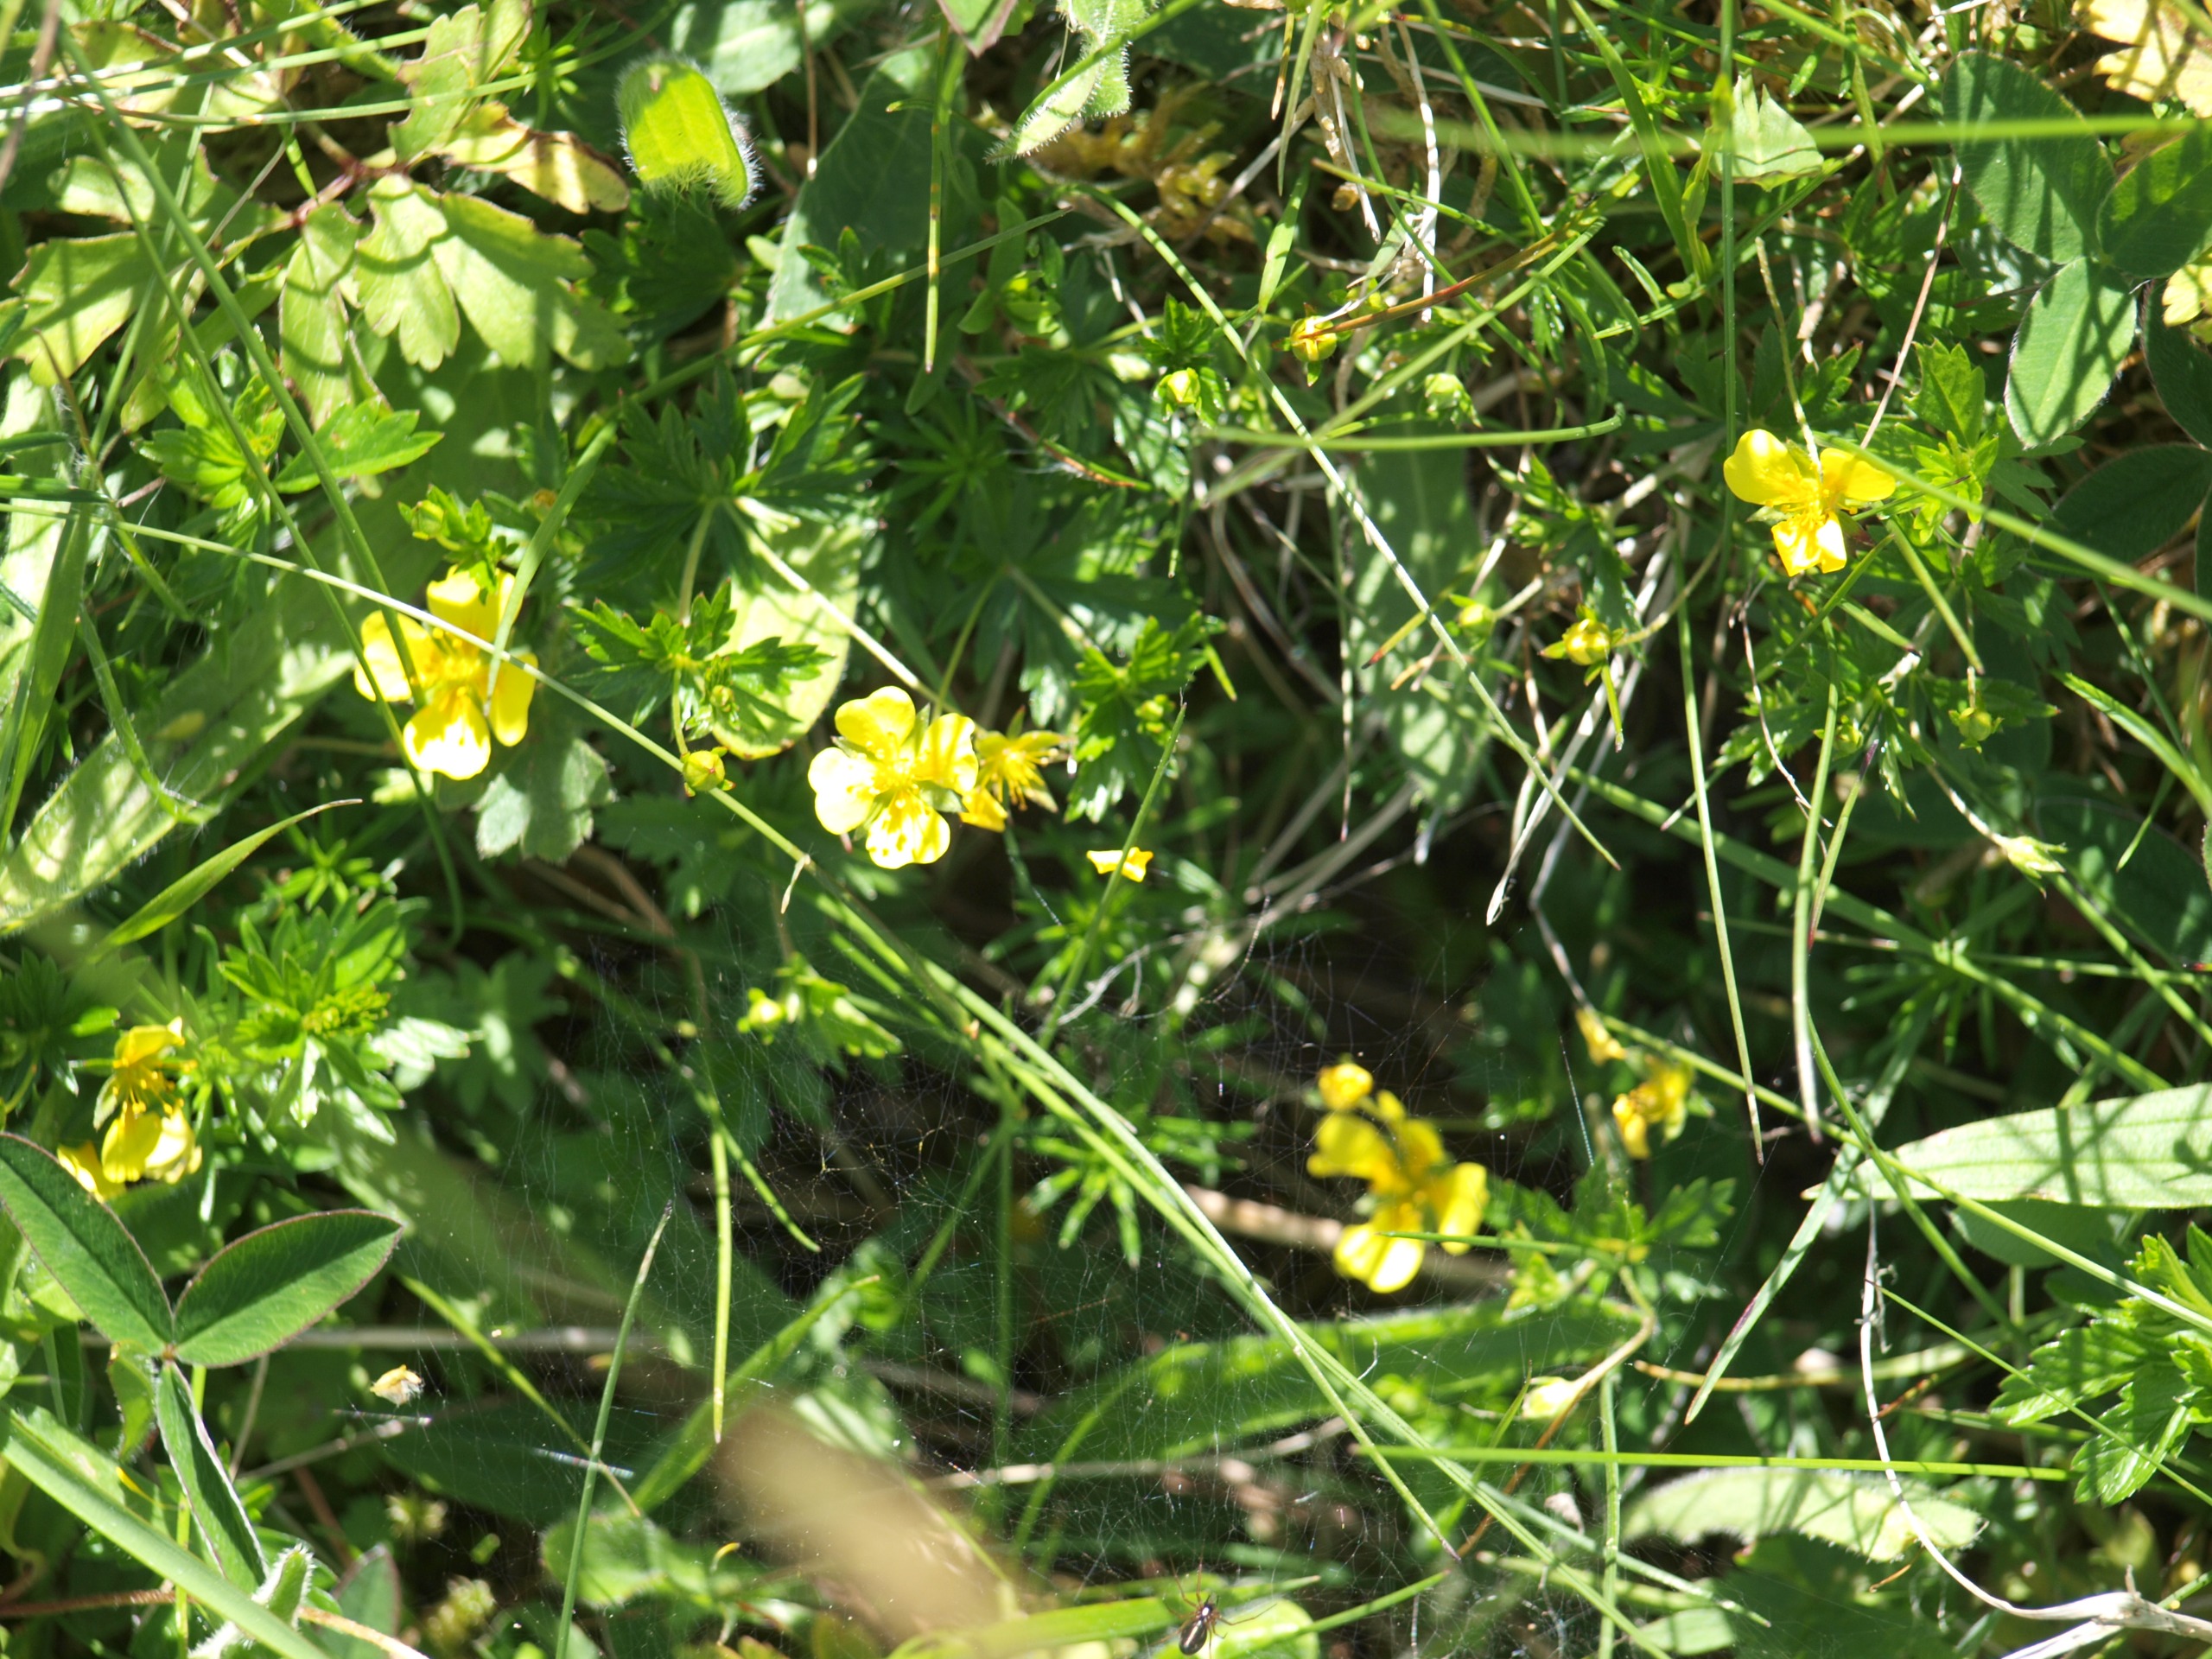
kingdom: Plantae
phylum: Tracheophyta
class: Magnoliopsida
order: Rosales
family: Rosaceae
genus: Potentilla
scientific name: Potentilla erecta
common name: Tormentil
